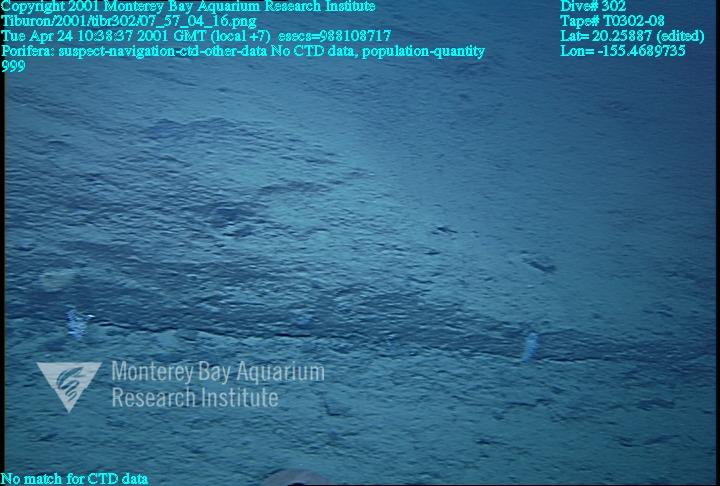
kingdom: Animalia
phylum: Porifera
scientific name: Porifera
